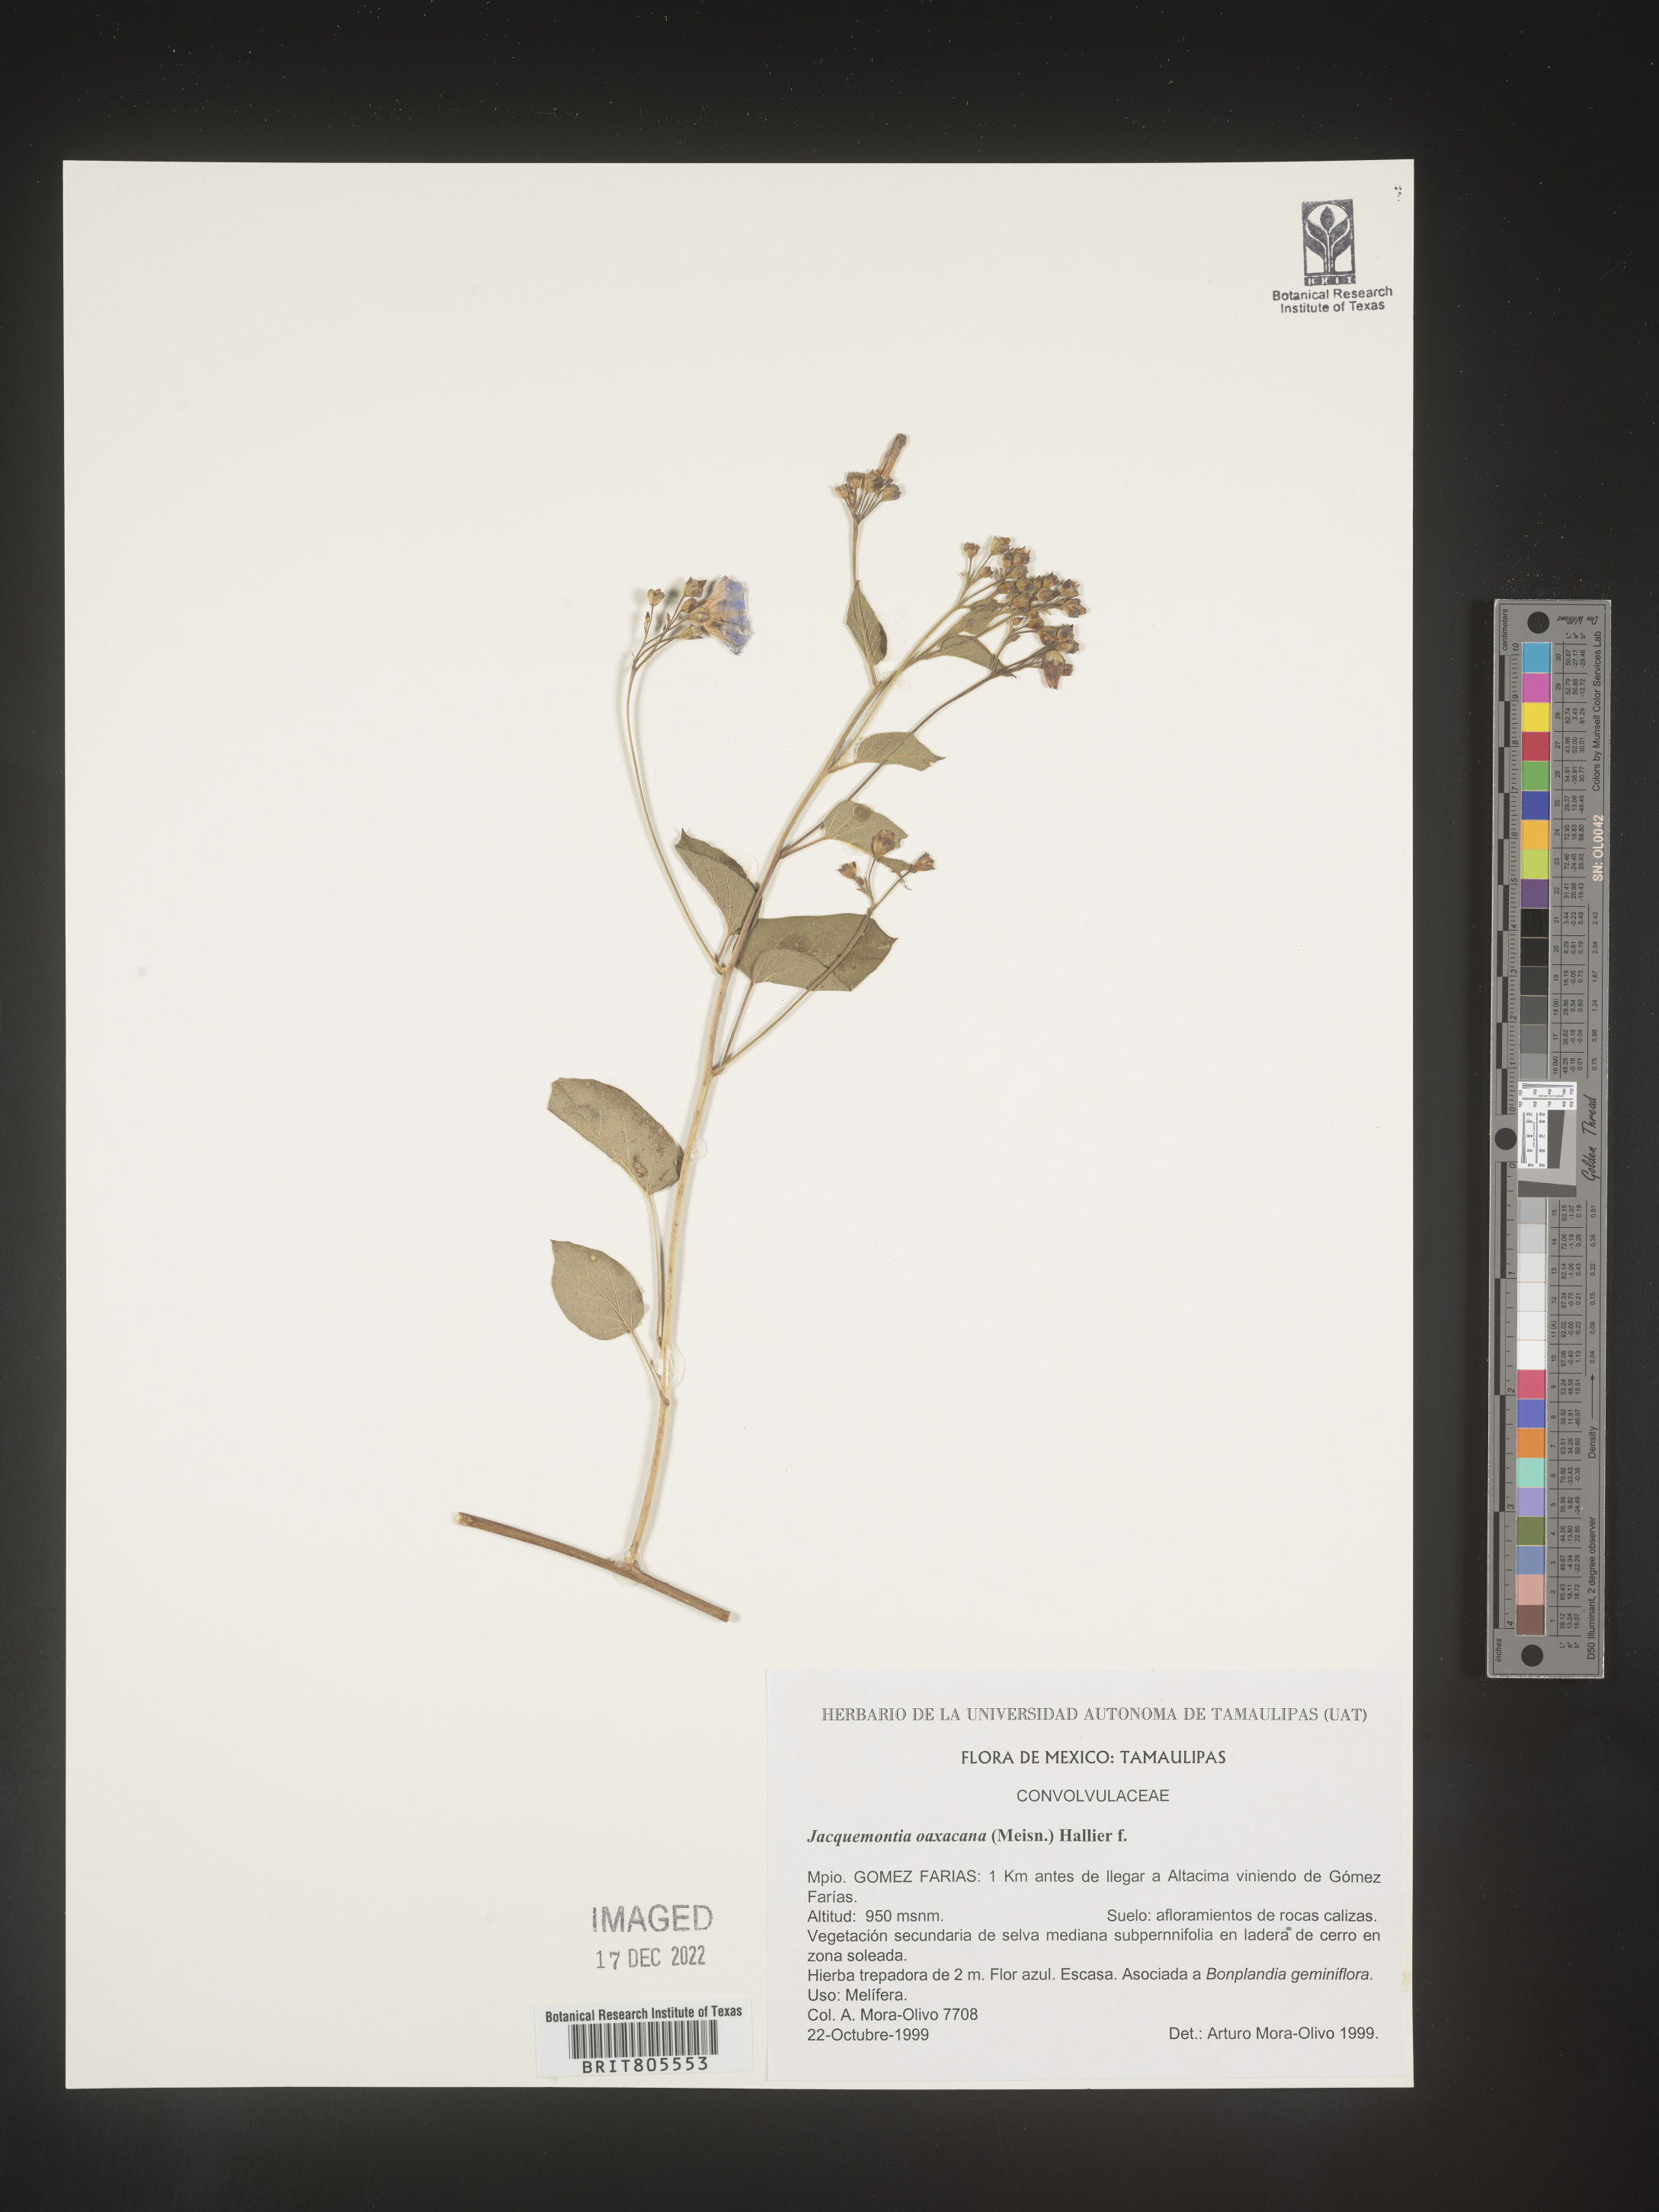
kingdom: Plantae
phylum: Tracheophyta
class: Magnoliopsida
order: Solanales
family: Convolvulaceae
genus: Jacquemontia
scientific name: Jacquemontia
